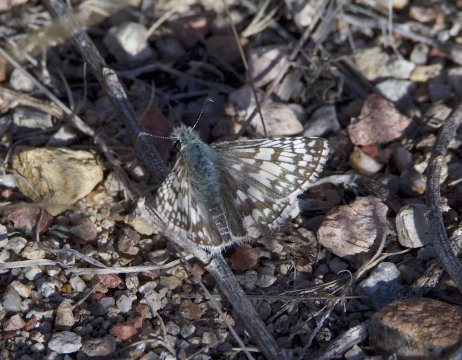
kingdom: Animalia
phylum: Arthropoda
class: Insecta
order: Lepidoptera
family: Hesperiidae
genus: Pyrgus
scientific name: Pyrgus communis
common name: Common Checkered-Skipper
